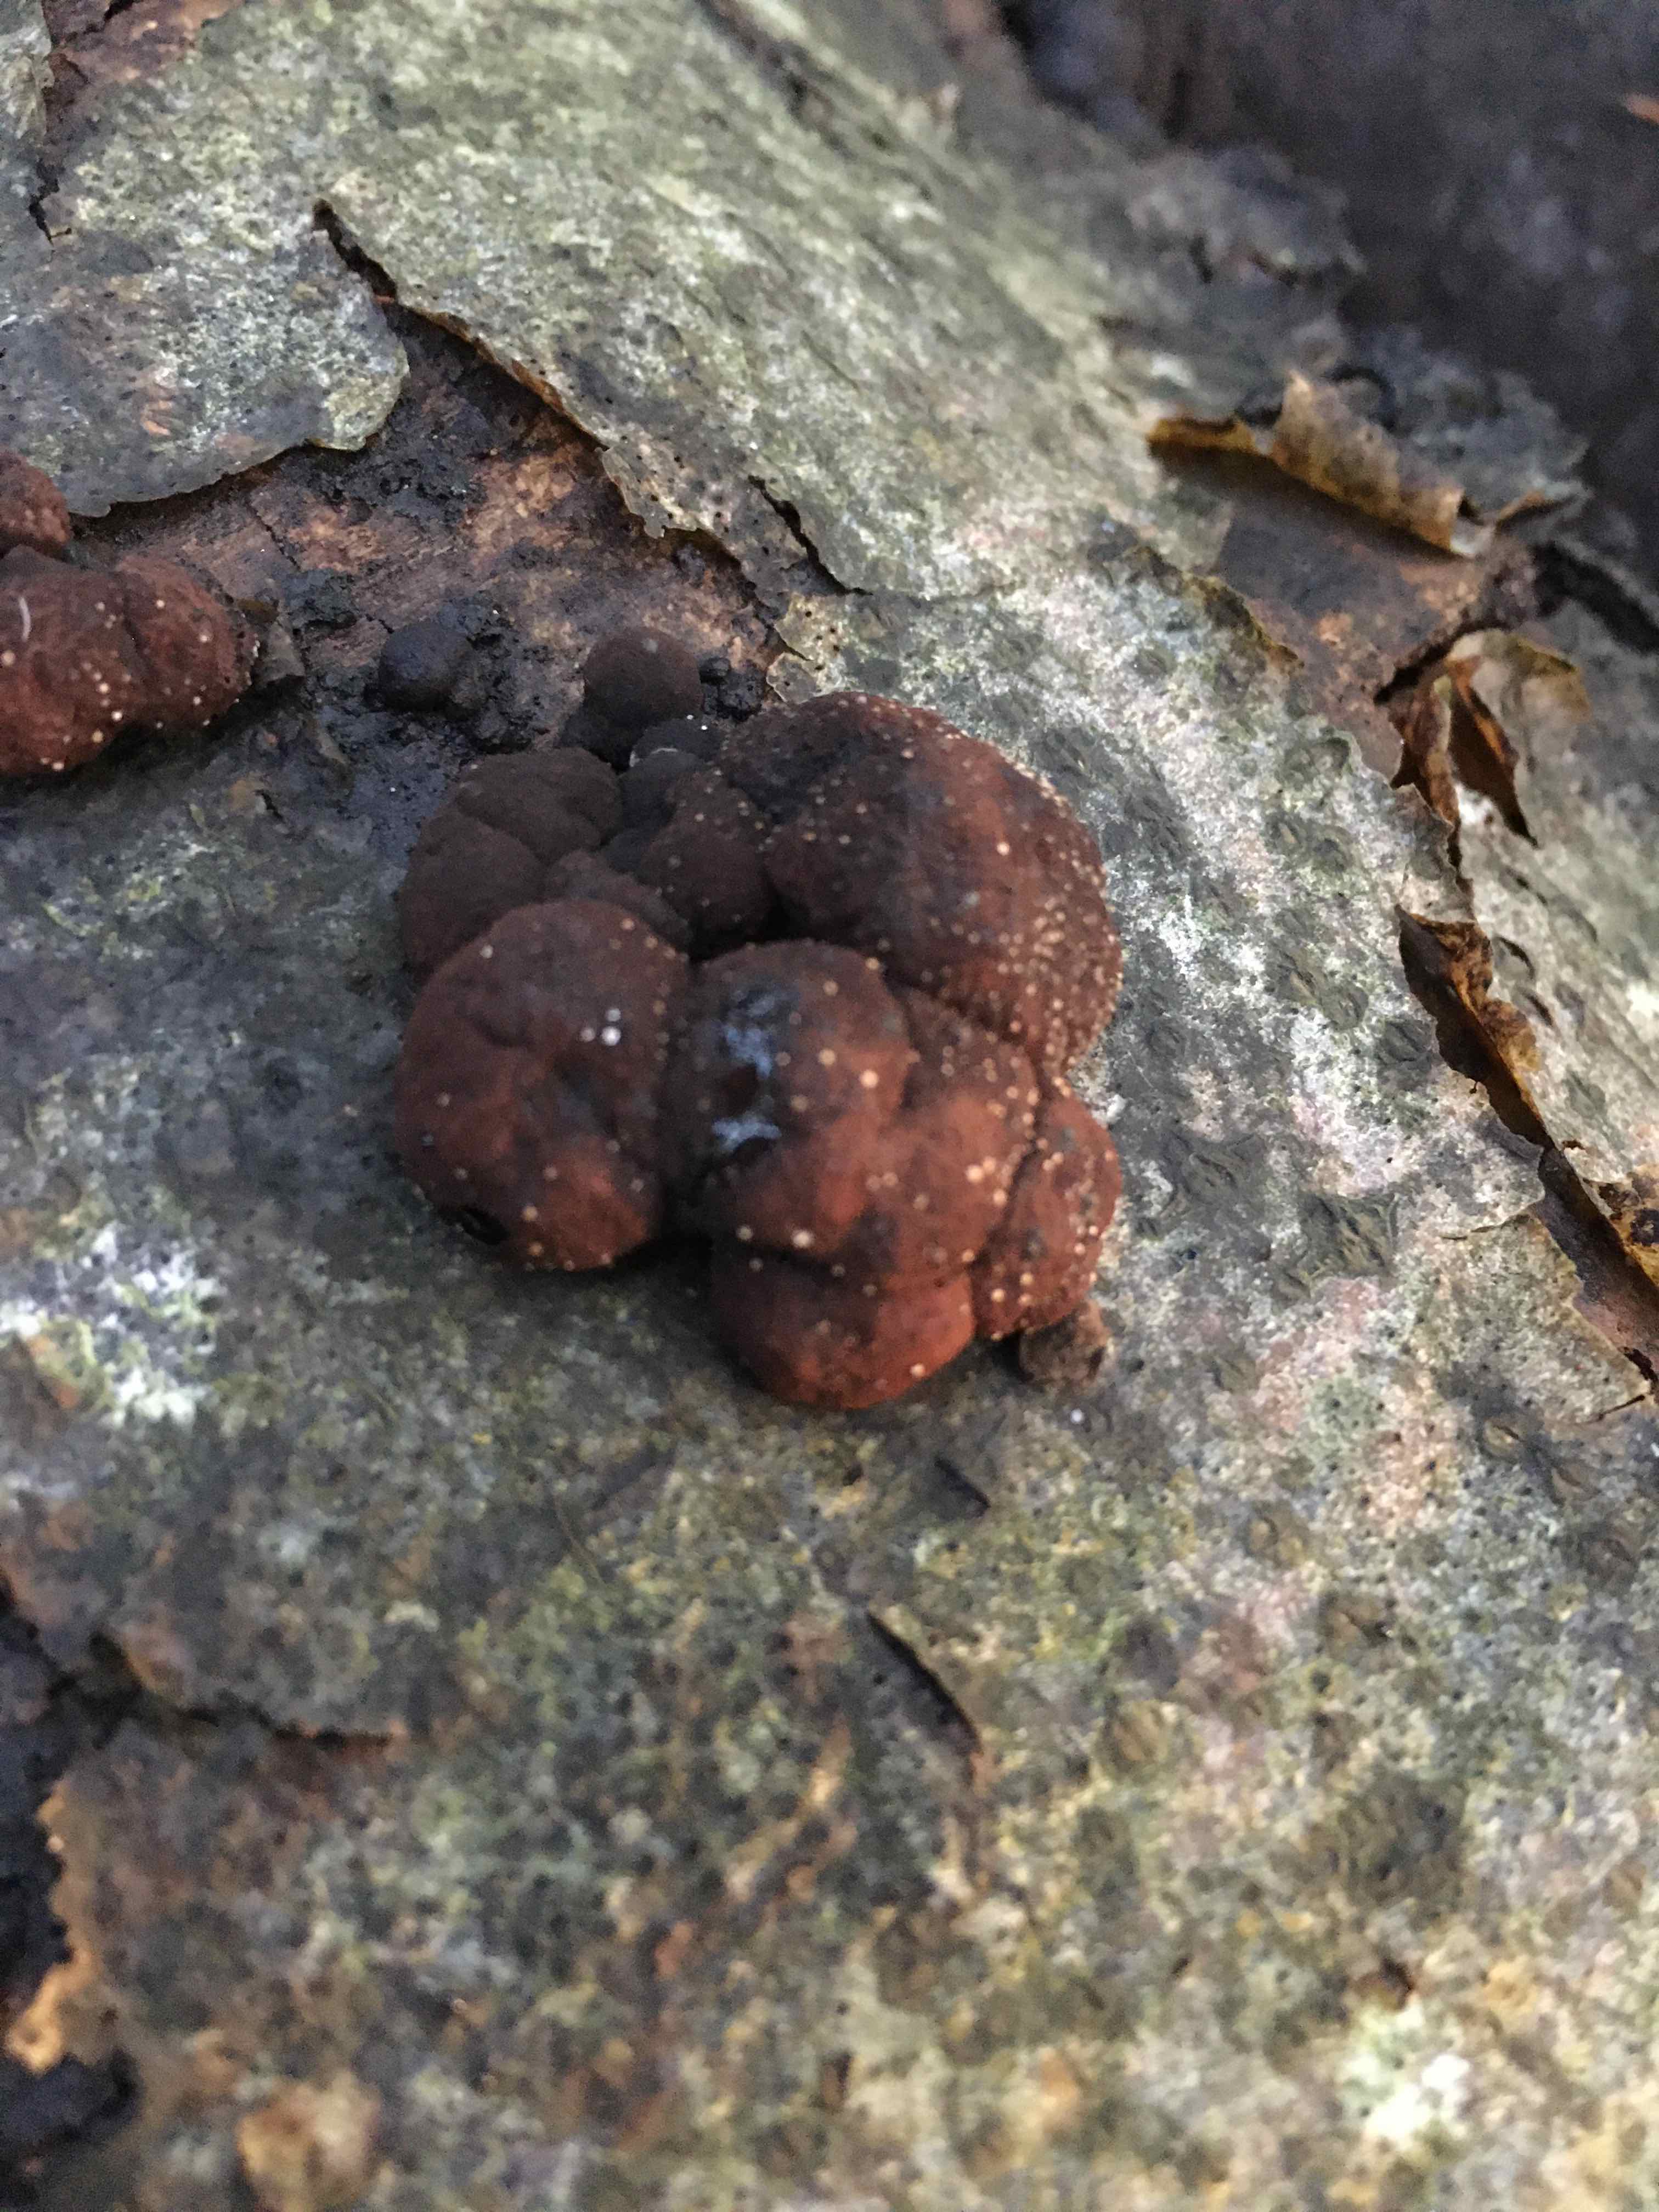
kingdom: Fungi
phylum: Ascomycota
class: Sordariomycetes
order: Xylariales
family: Hypoxylaceae
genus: Hypoxylon
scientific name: Hypoxylon fragiforme
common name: kuljordbær
